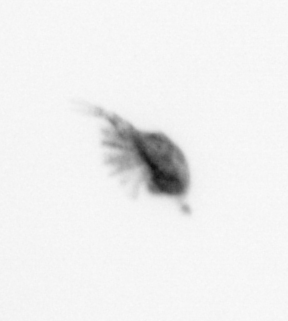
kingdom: Animalia
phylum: Arthropoda
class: Copepoda
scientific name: Copepoda
